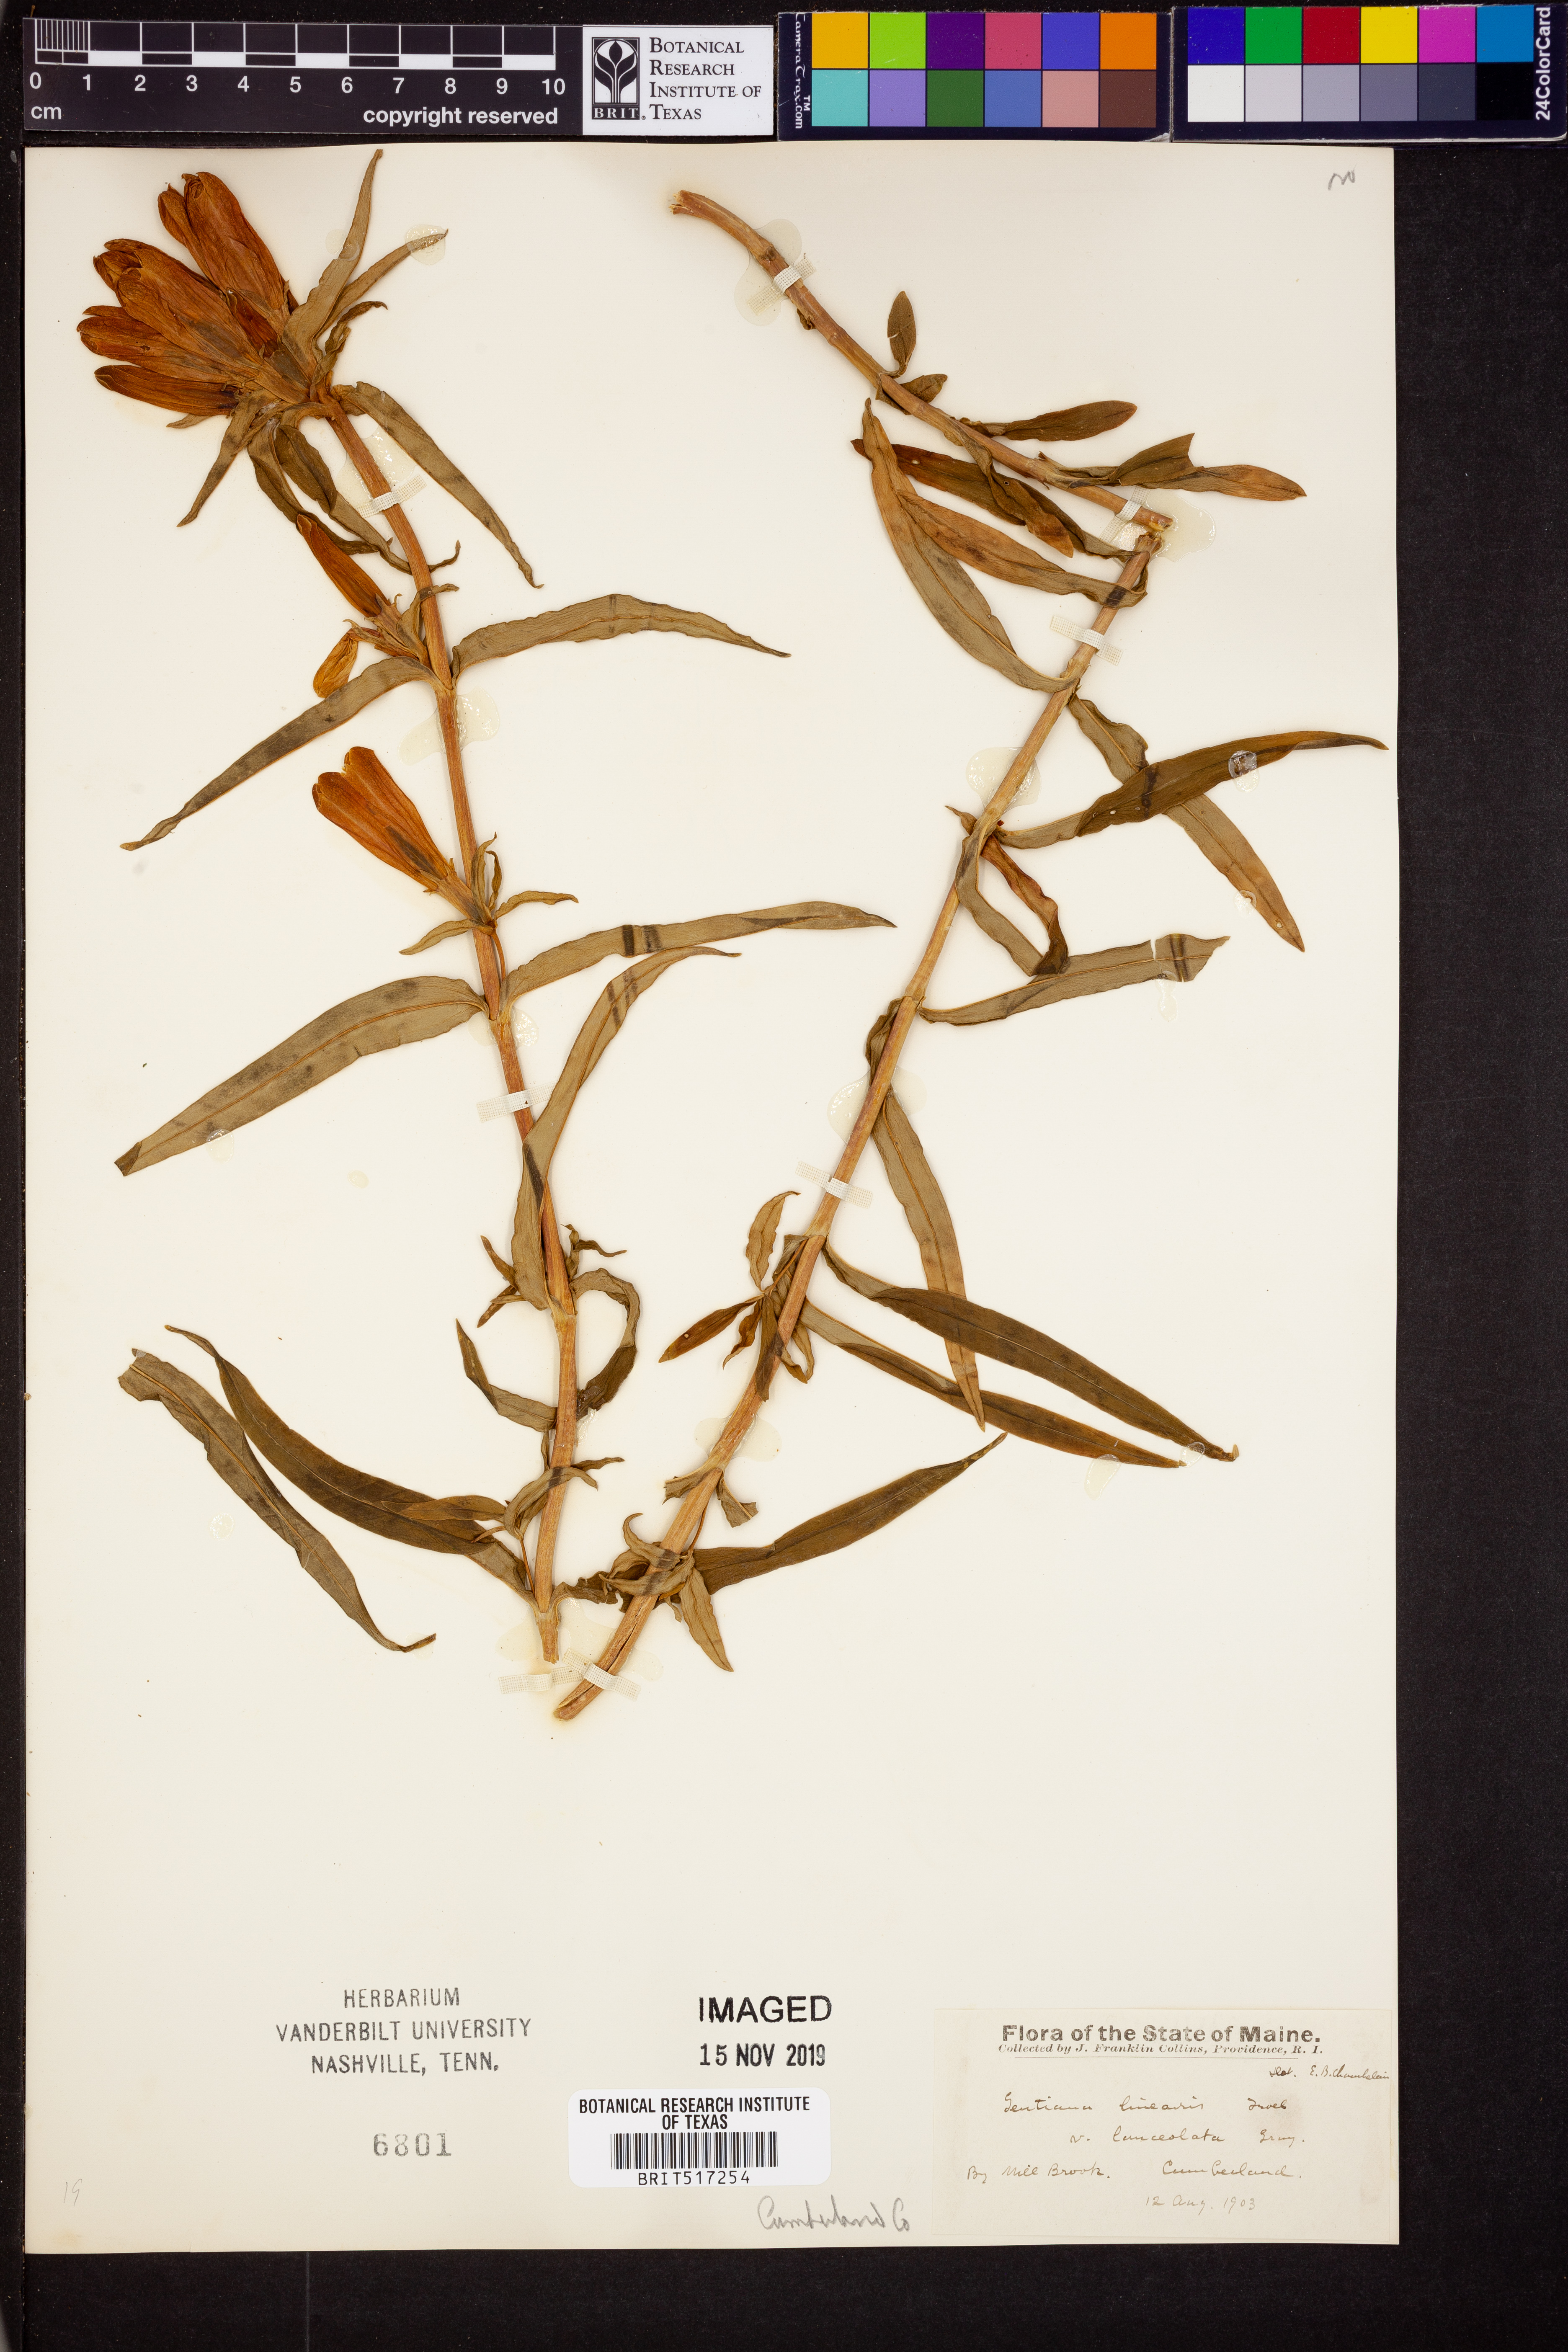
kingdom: Plantae
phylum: Tracheophyta
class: Magnoliopsida
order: Gentianales
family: Gentianaceae
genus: Gentiana
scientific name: Gentiana rubricaulis
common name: Purple-stemmed gentian
